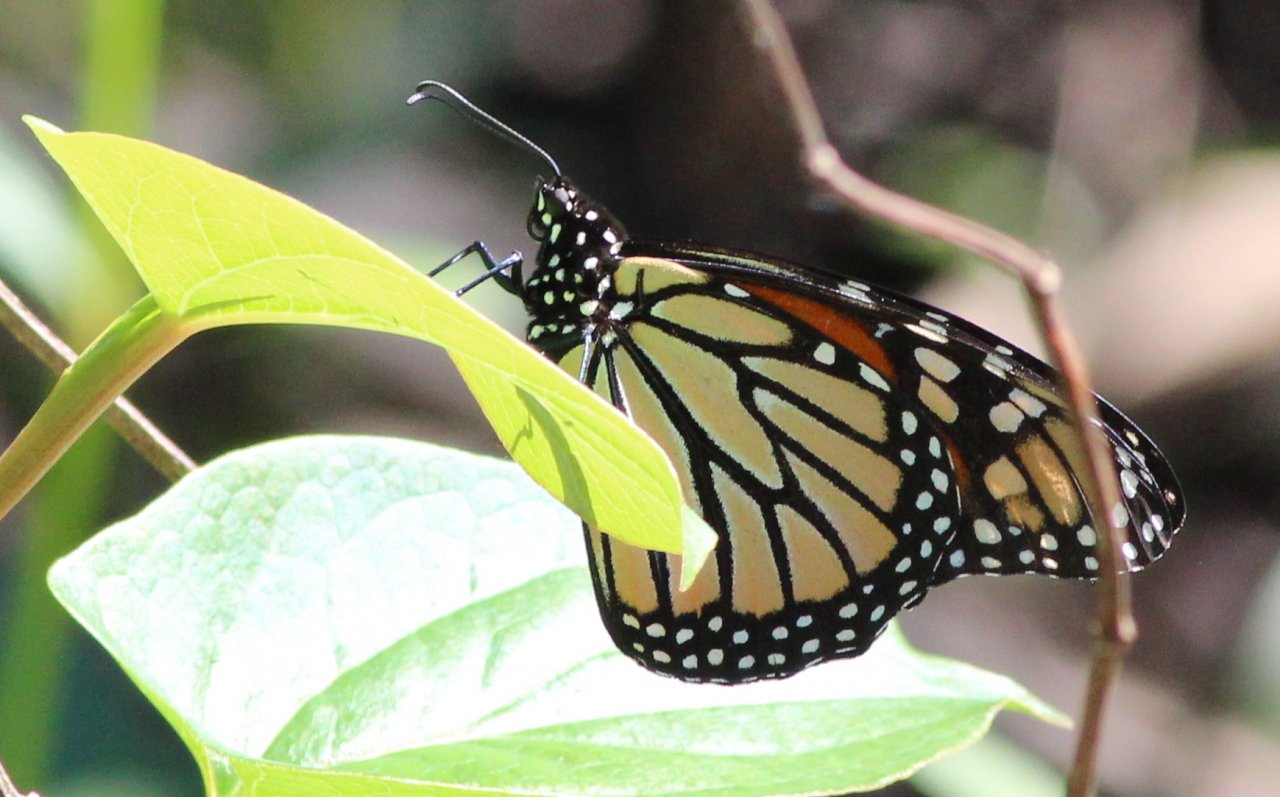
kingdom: Animalia
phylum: Arthropoda
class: Insecta
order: Lepidoptera
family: Nymphalidae
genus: Danaus
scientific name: Danaus plexippus
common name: Monarch
